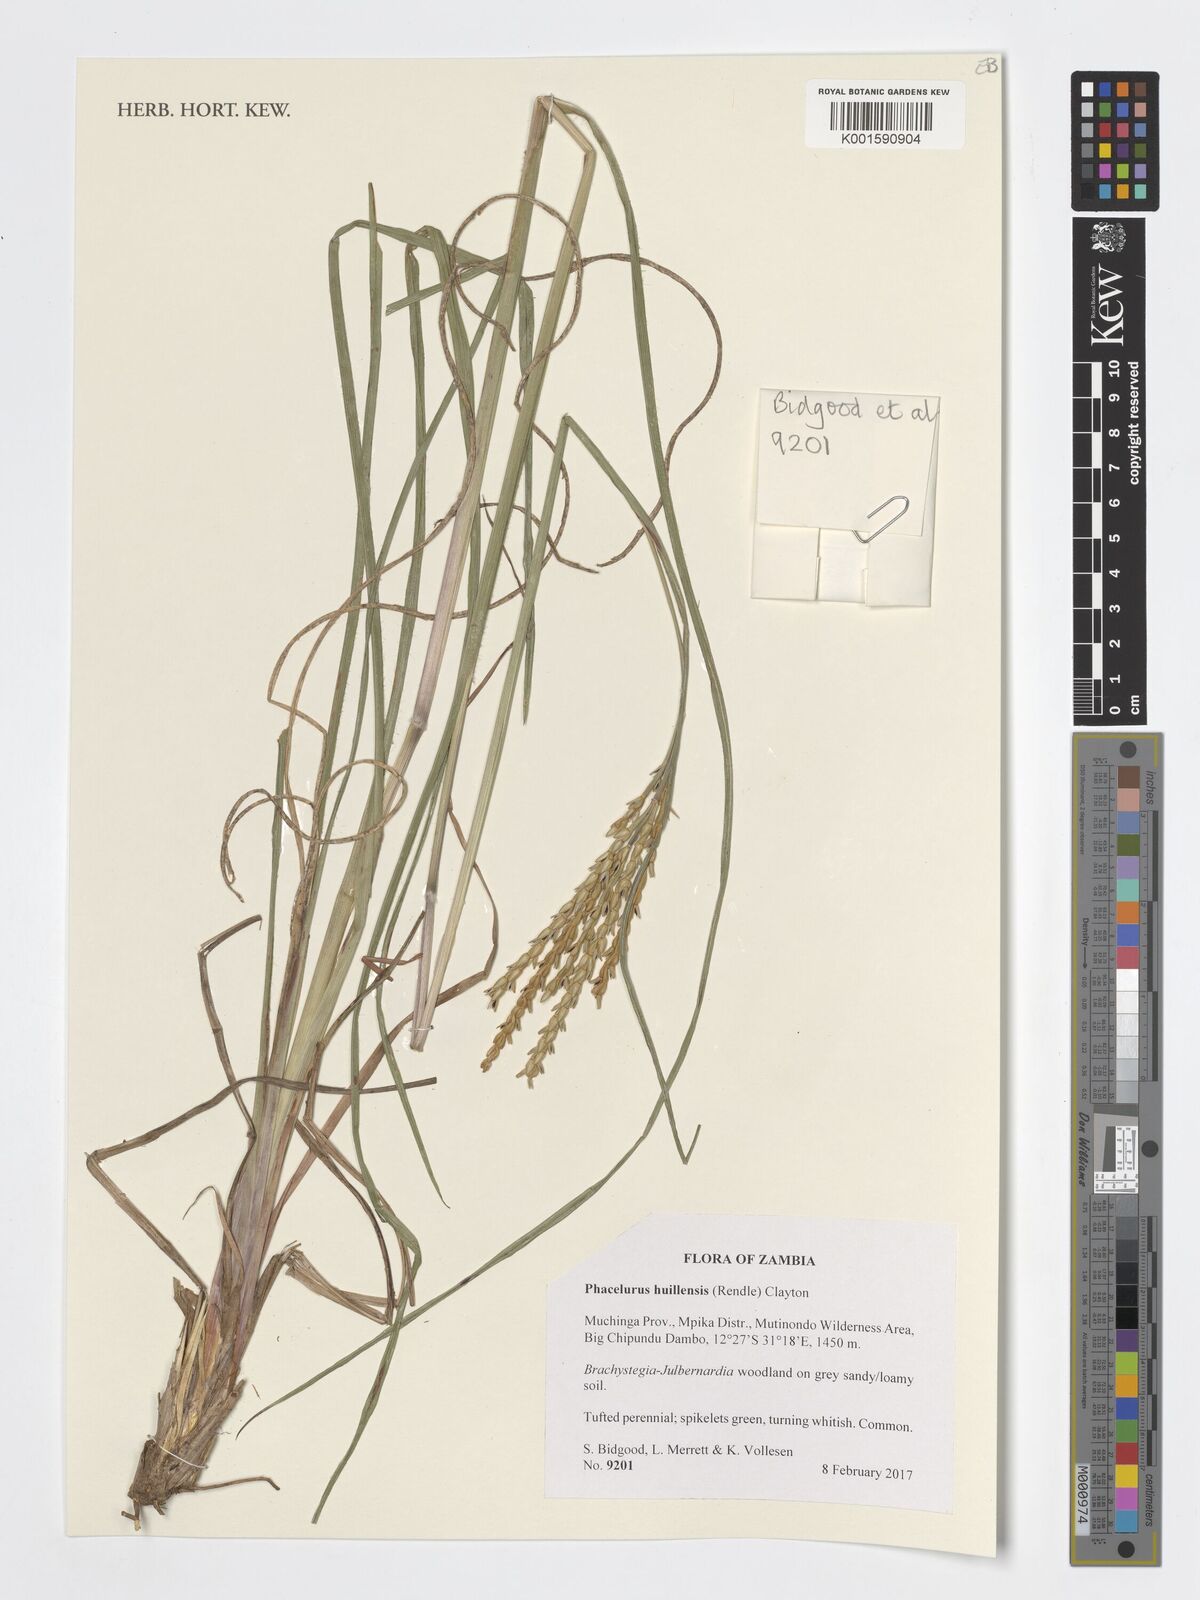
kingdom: Plantae
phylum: Tracheophyta
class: Liliopsida
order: Poales
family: Poaceae
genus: Thyrsia
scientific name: Thyrsia huillensis
